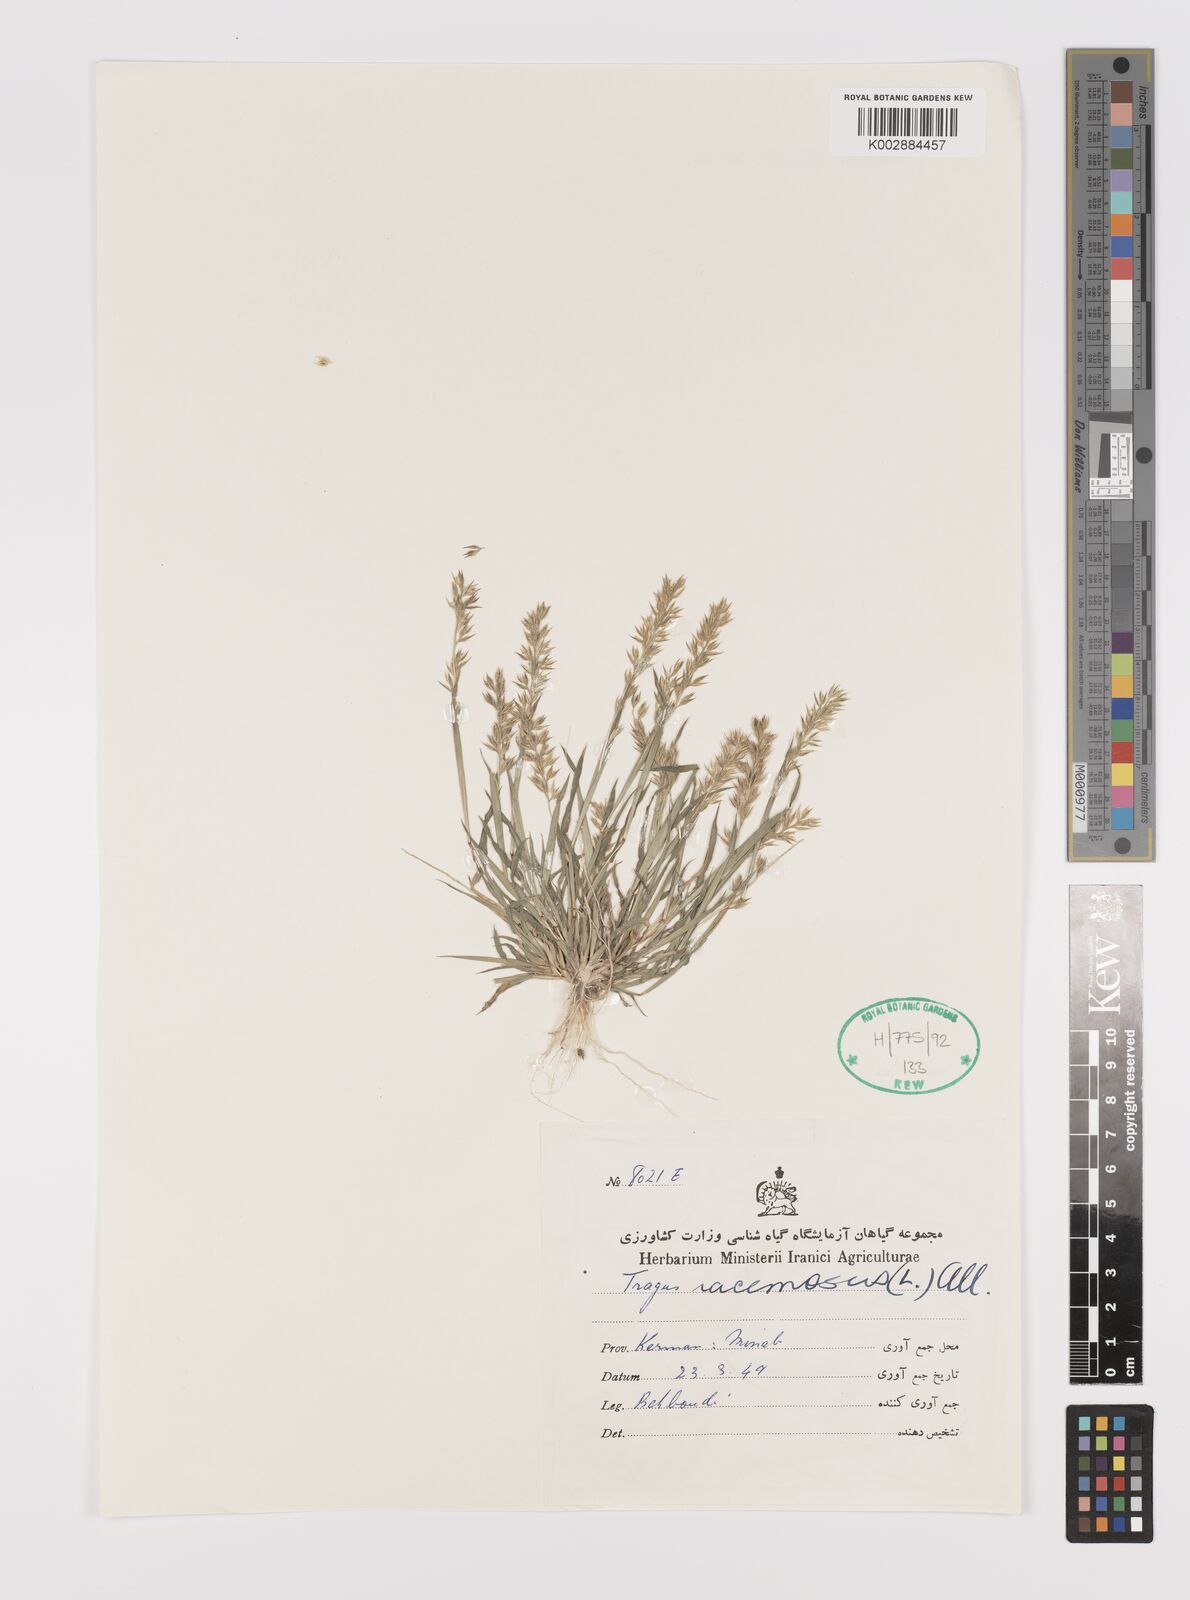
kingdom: Plantae
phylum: Tracheophyta
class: Liliopsida
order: Poales
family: Poaceae
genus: Tragus
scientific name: Tragus racemosus
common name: European bur-grass
